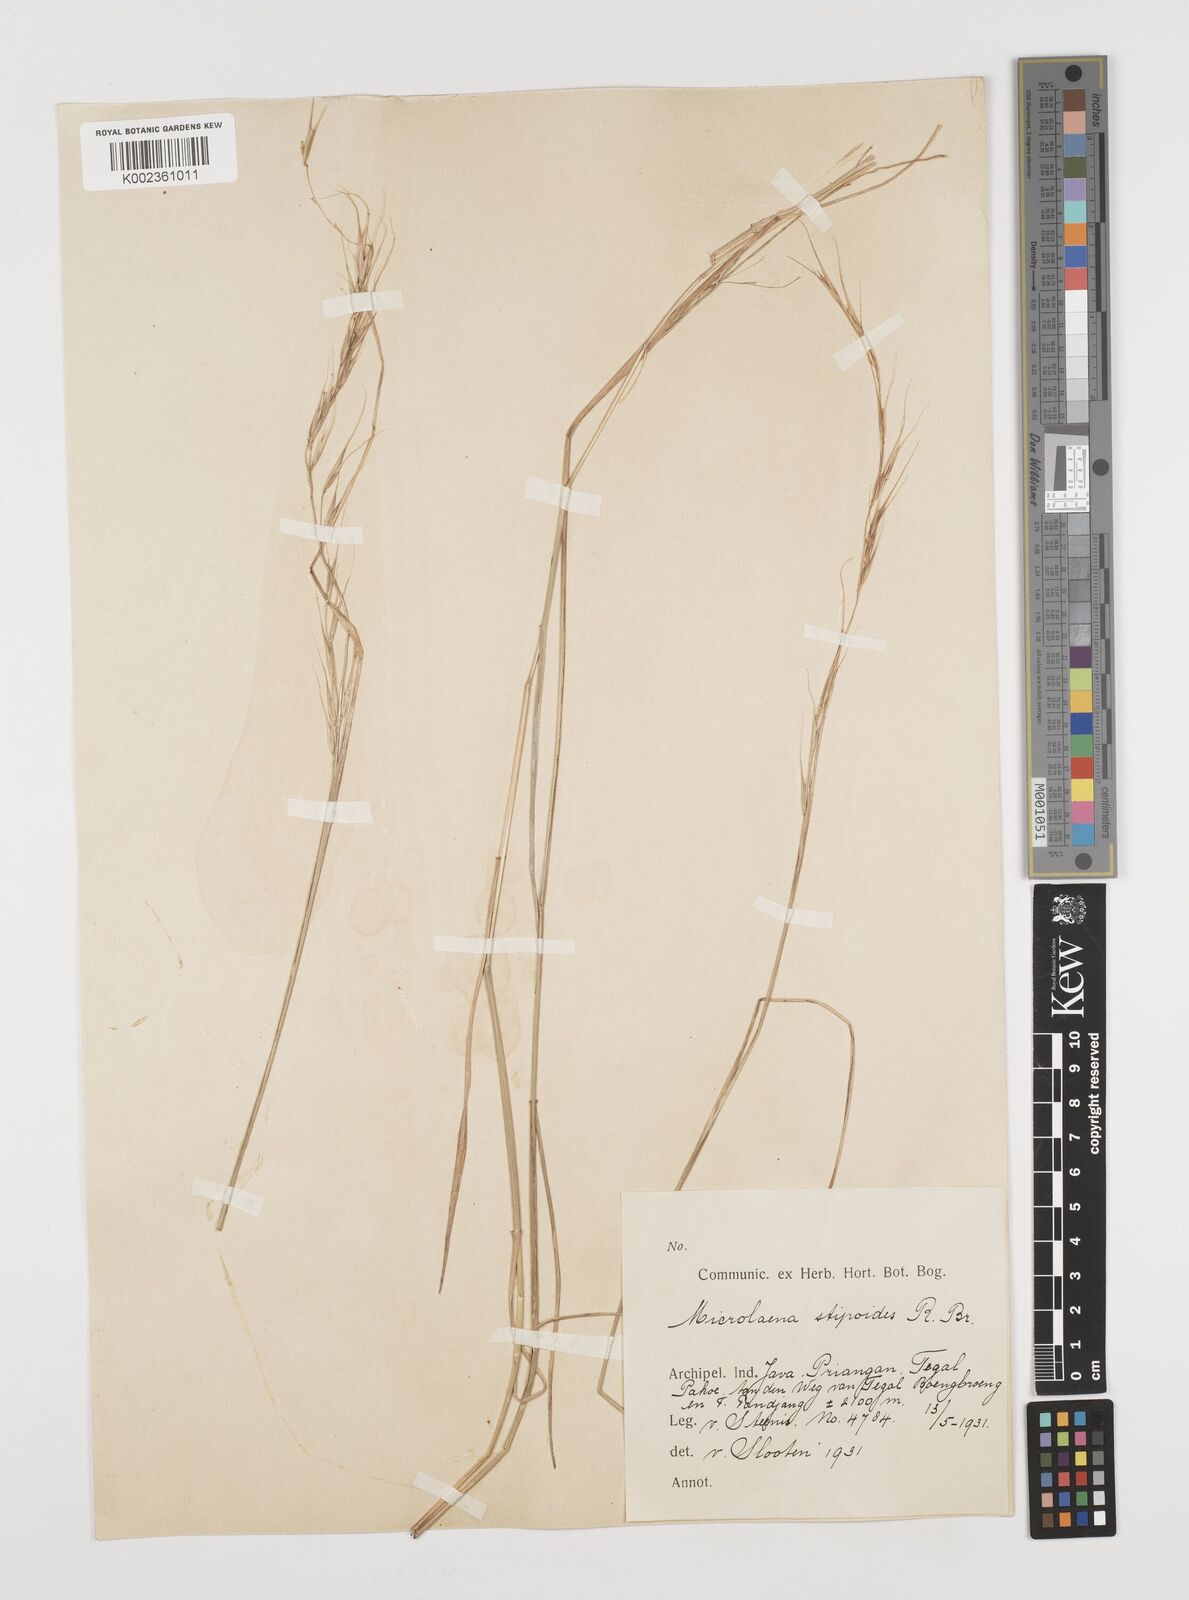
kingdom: Plantae
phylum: Tracheophyta
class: Liliopsida
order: Poales
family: Poaceae
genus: Microlaena
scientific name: Microlaena stipoides
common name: Meadow ricegrass
